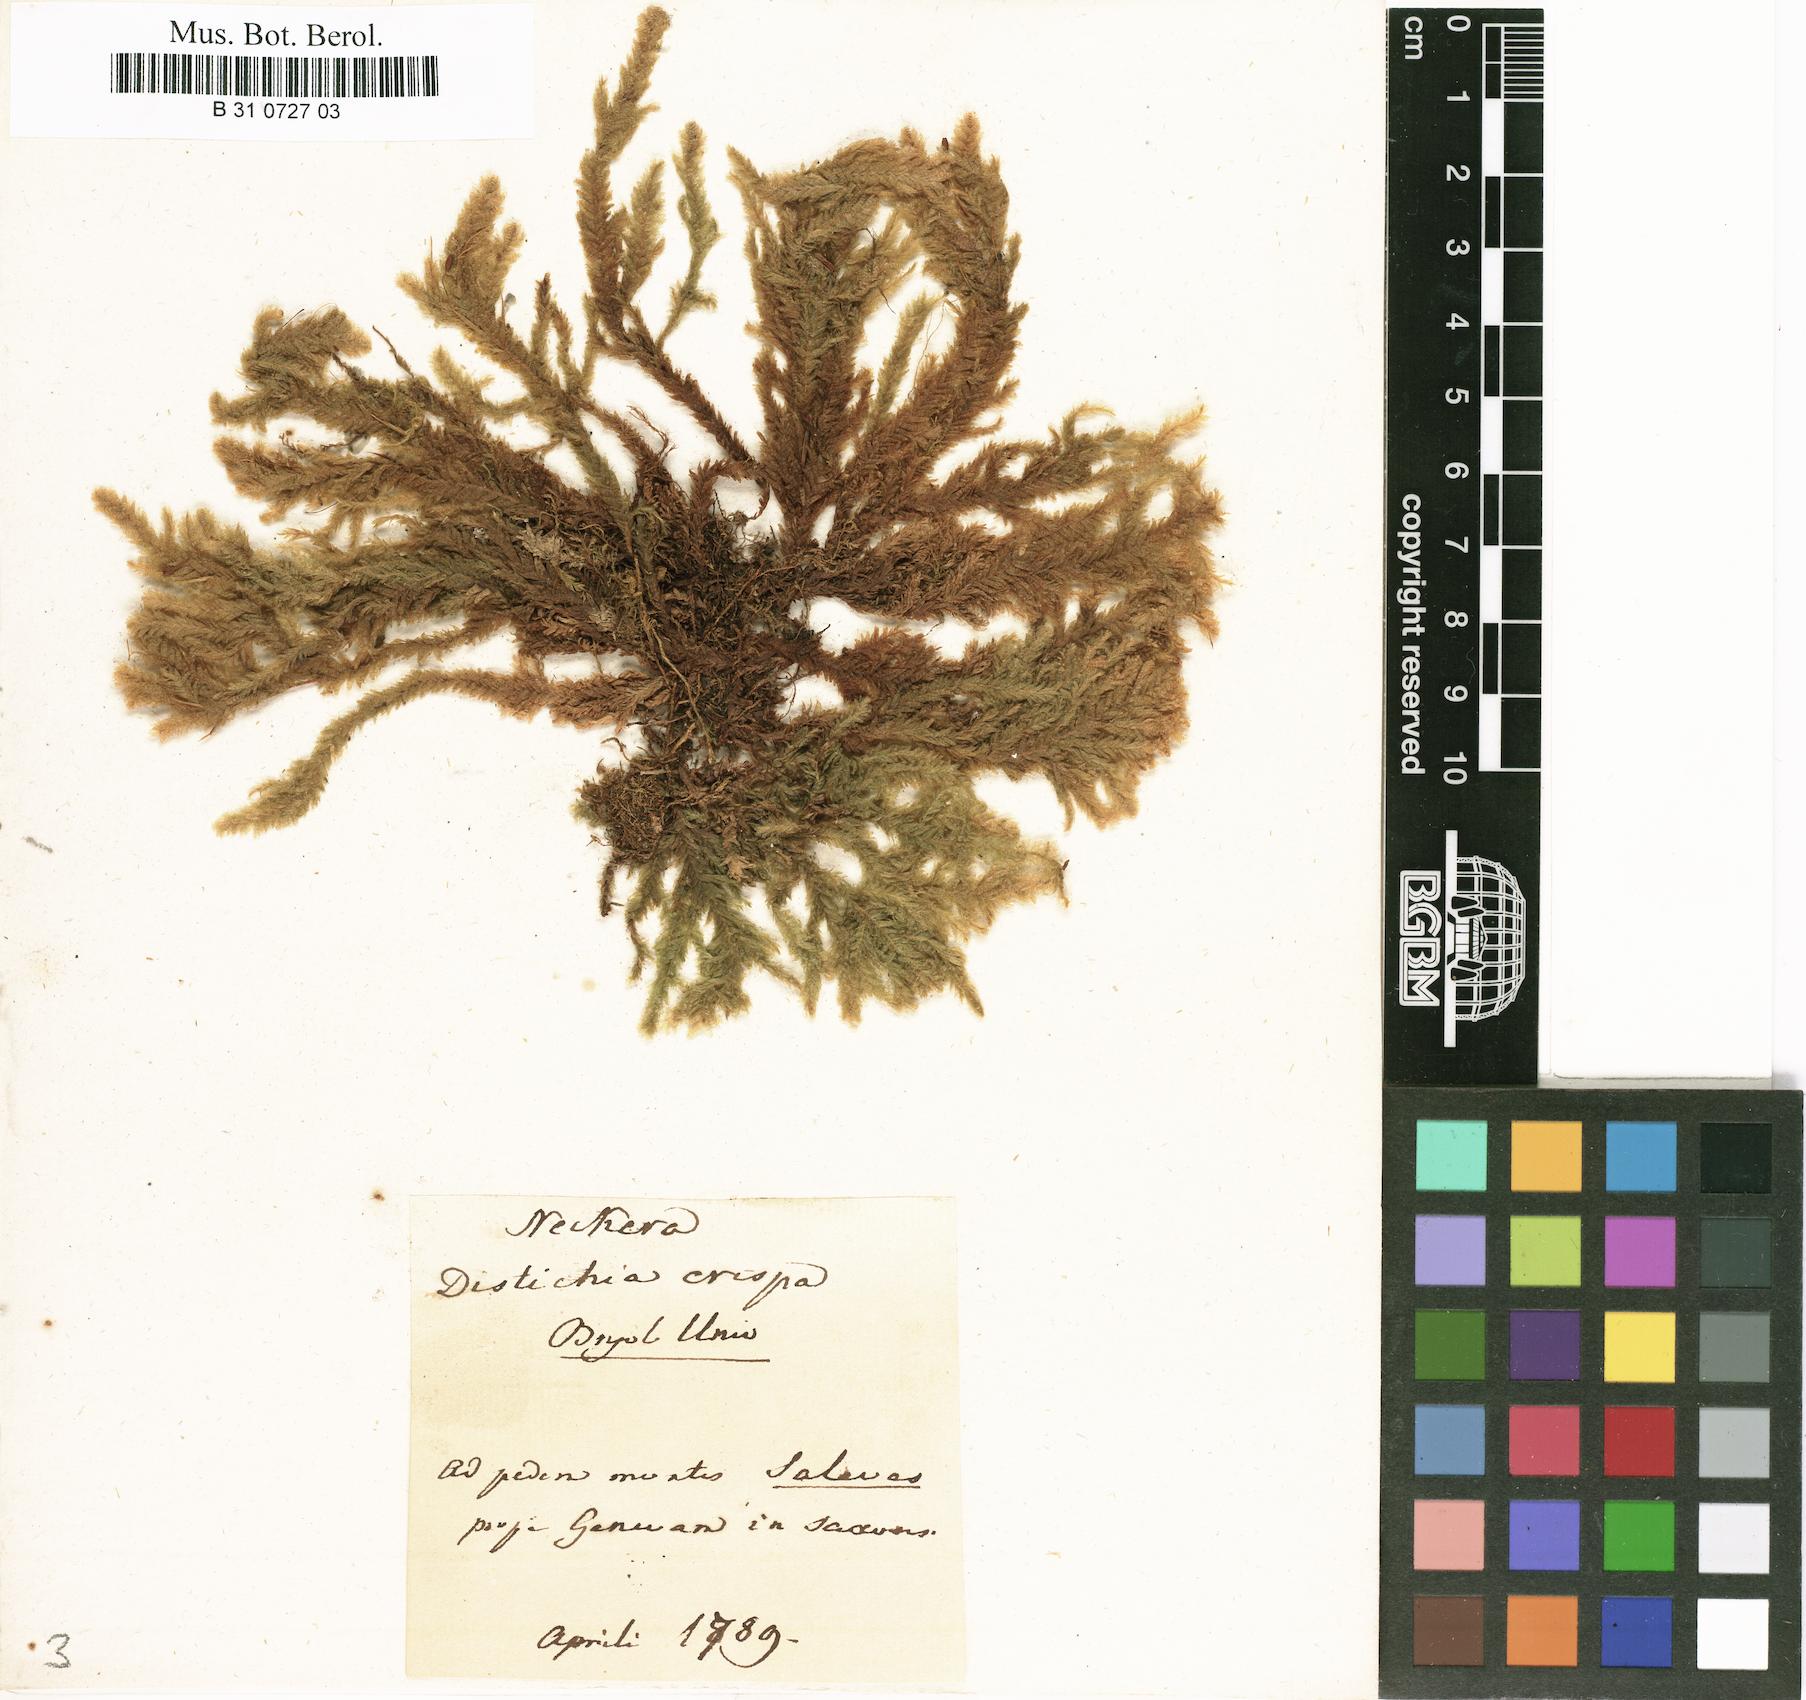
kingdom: Plantae
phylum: Bryophyta
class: Bryopsida
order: Hypnales
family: Neckeraceae
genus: Exsertotheca
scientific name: Exsertotheca crispa
